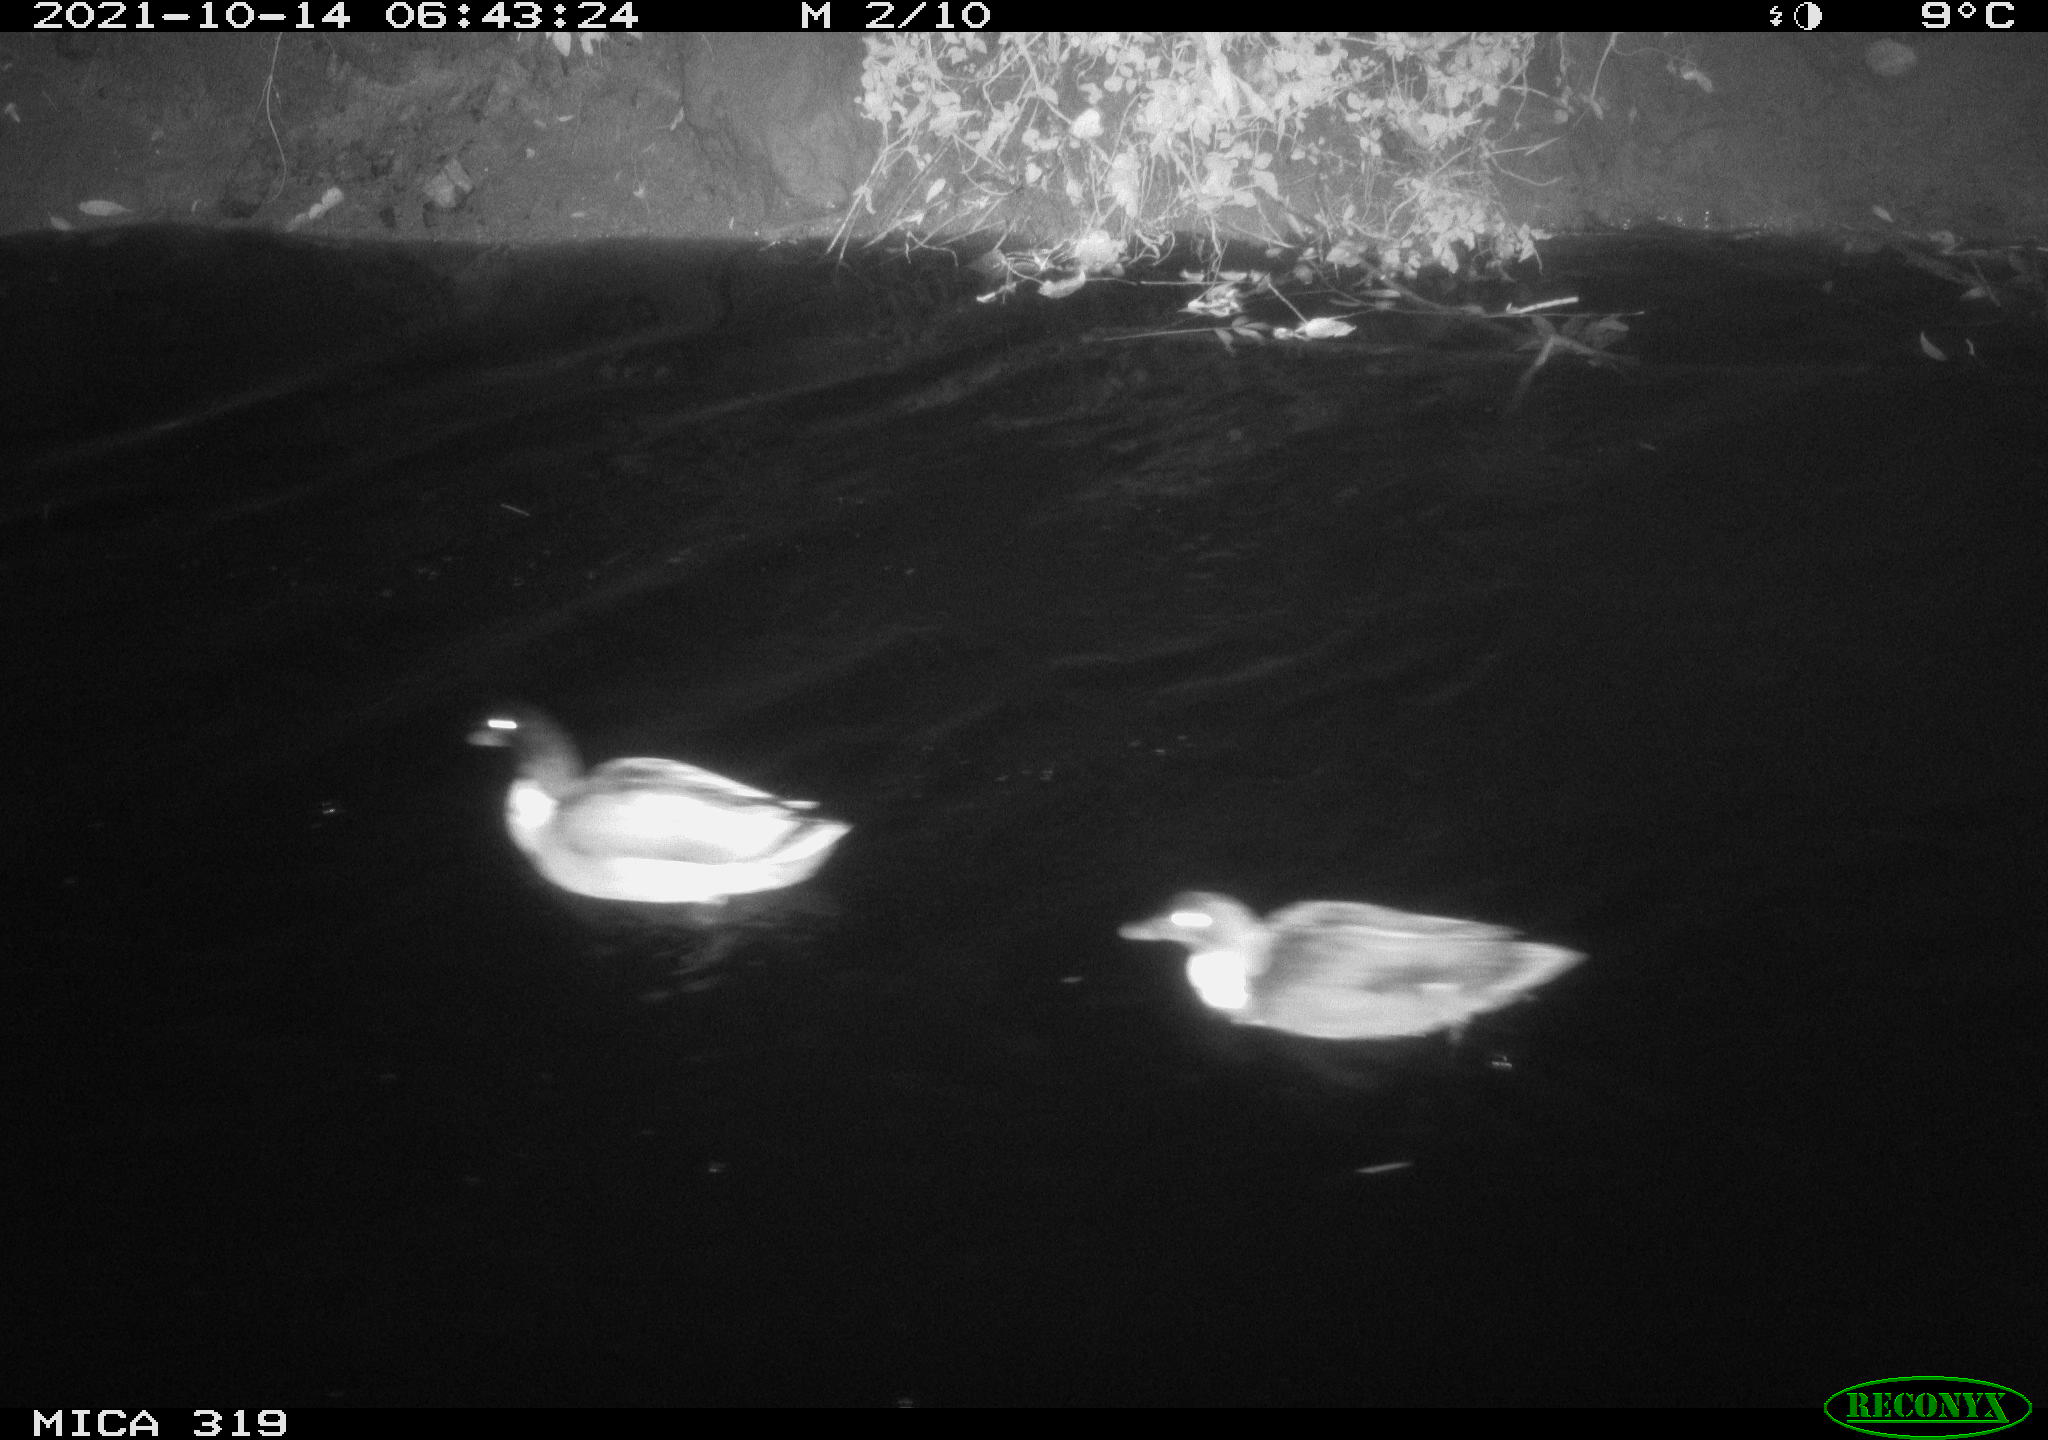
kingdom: Animalia
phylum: Chordata
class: Aves
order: Anseriformes
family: Anatidae
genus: Anas
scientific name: Anas platyrhynchos
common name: Mallard
